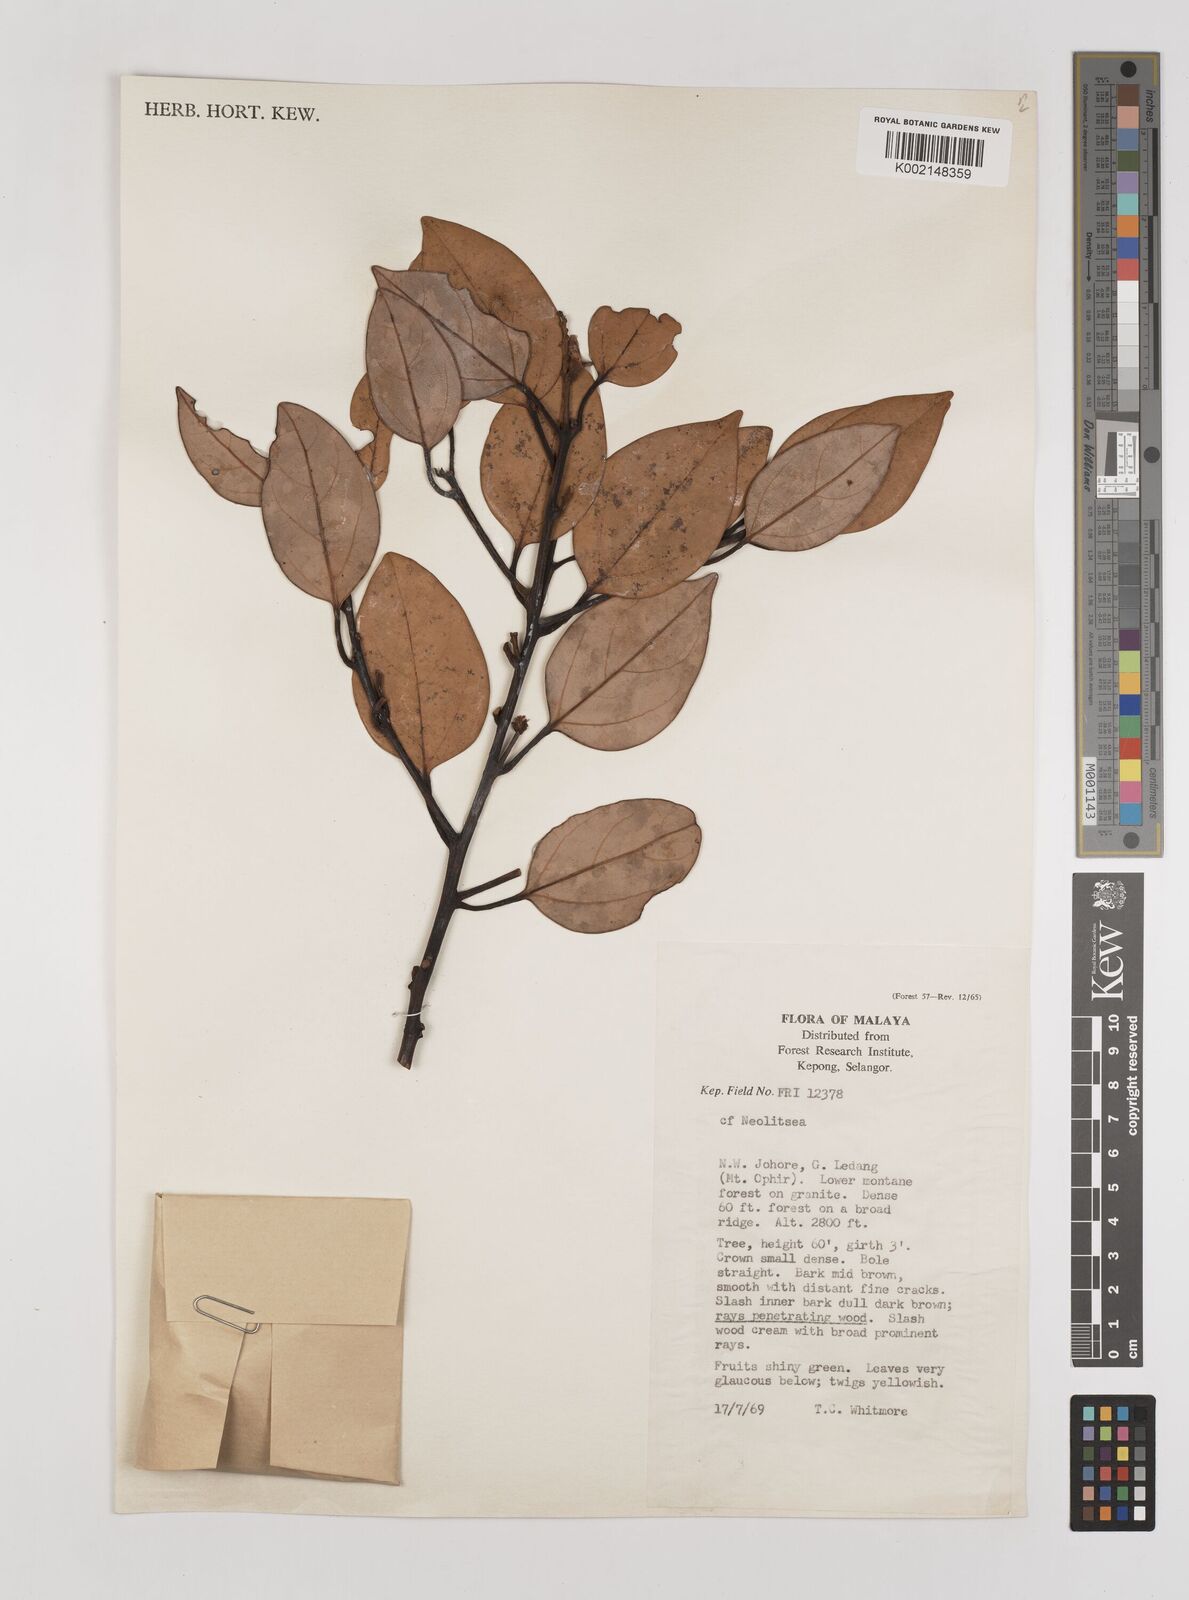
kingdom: Plantae
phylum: Tracheophyta
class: Magnoliopsida
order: Laurales
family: Lauraceae
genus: Neolitsea
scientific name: Neolitsea
